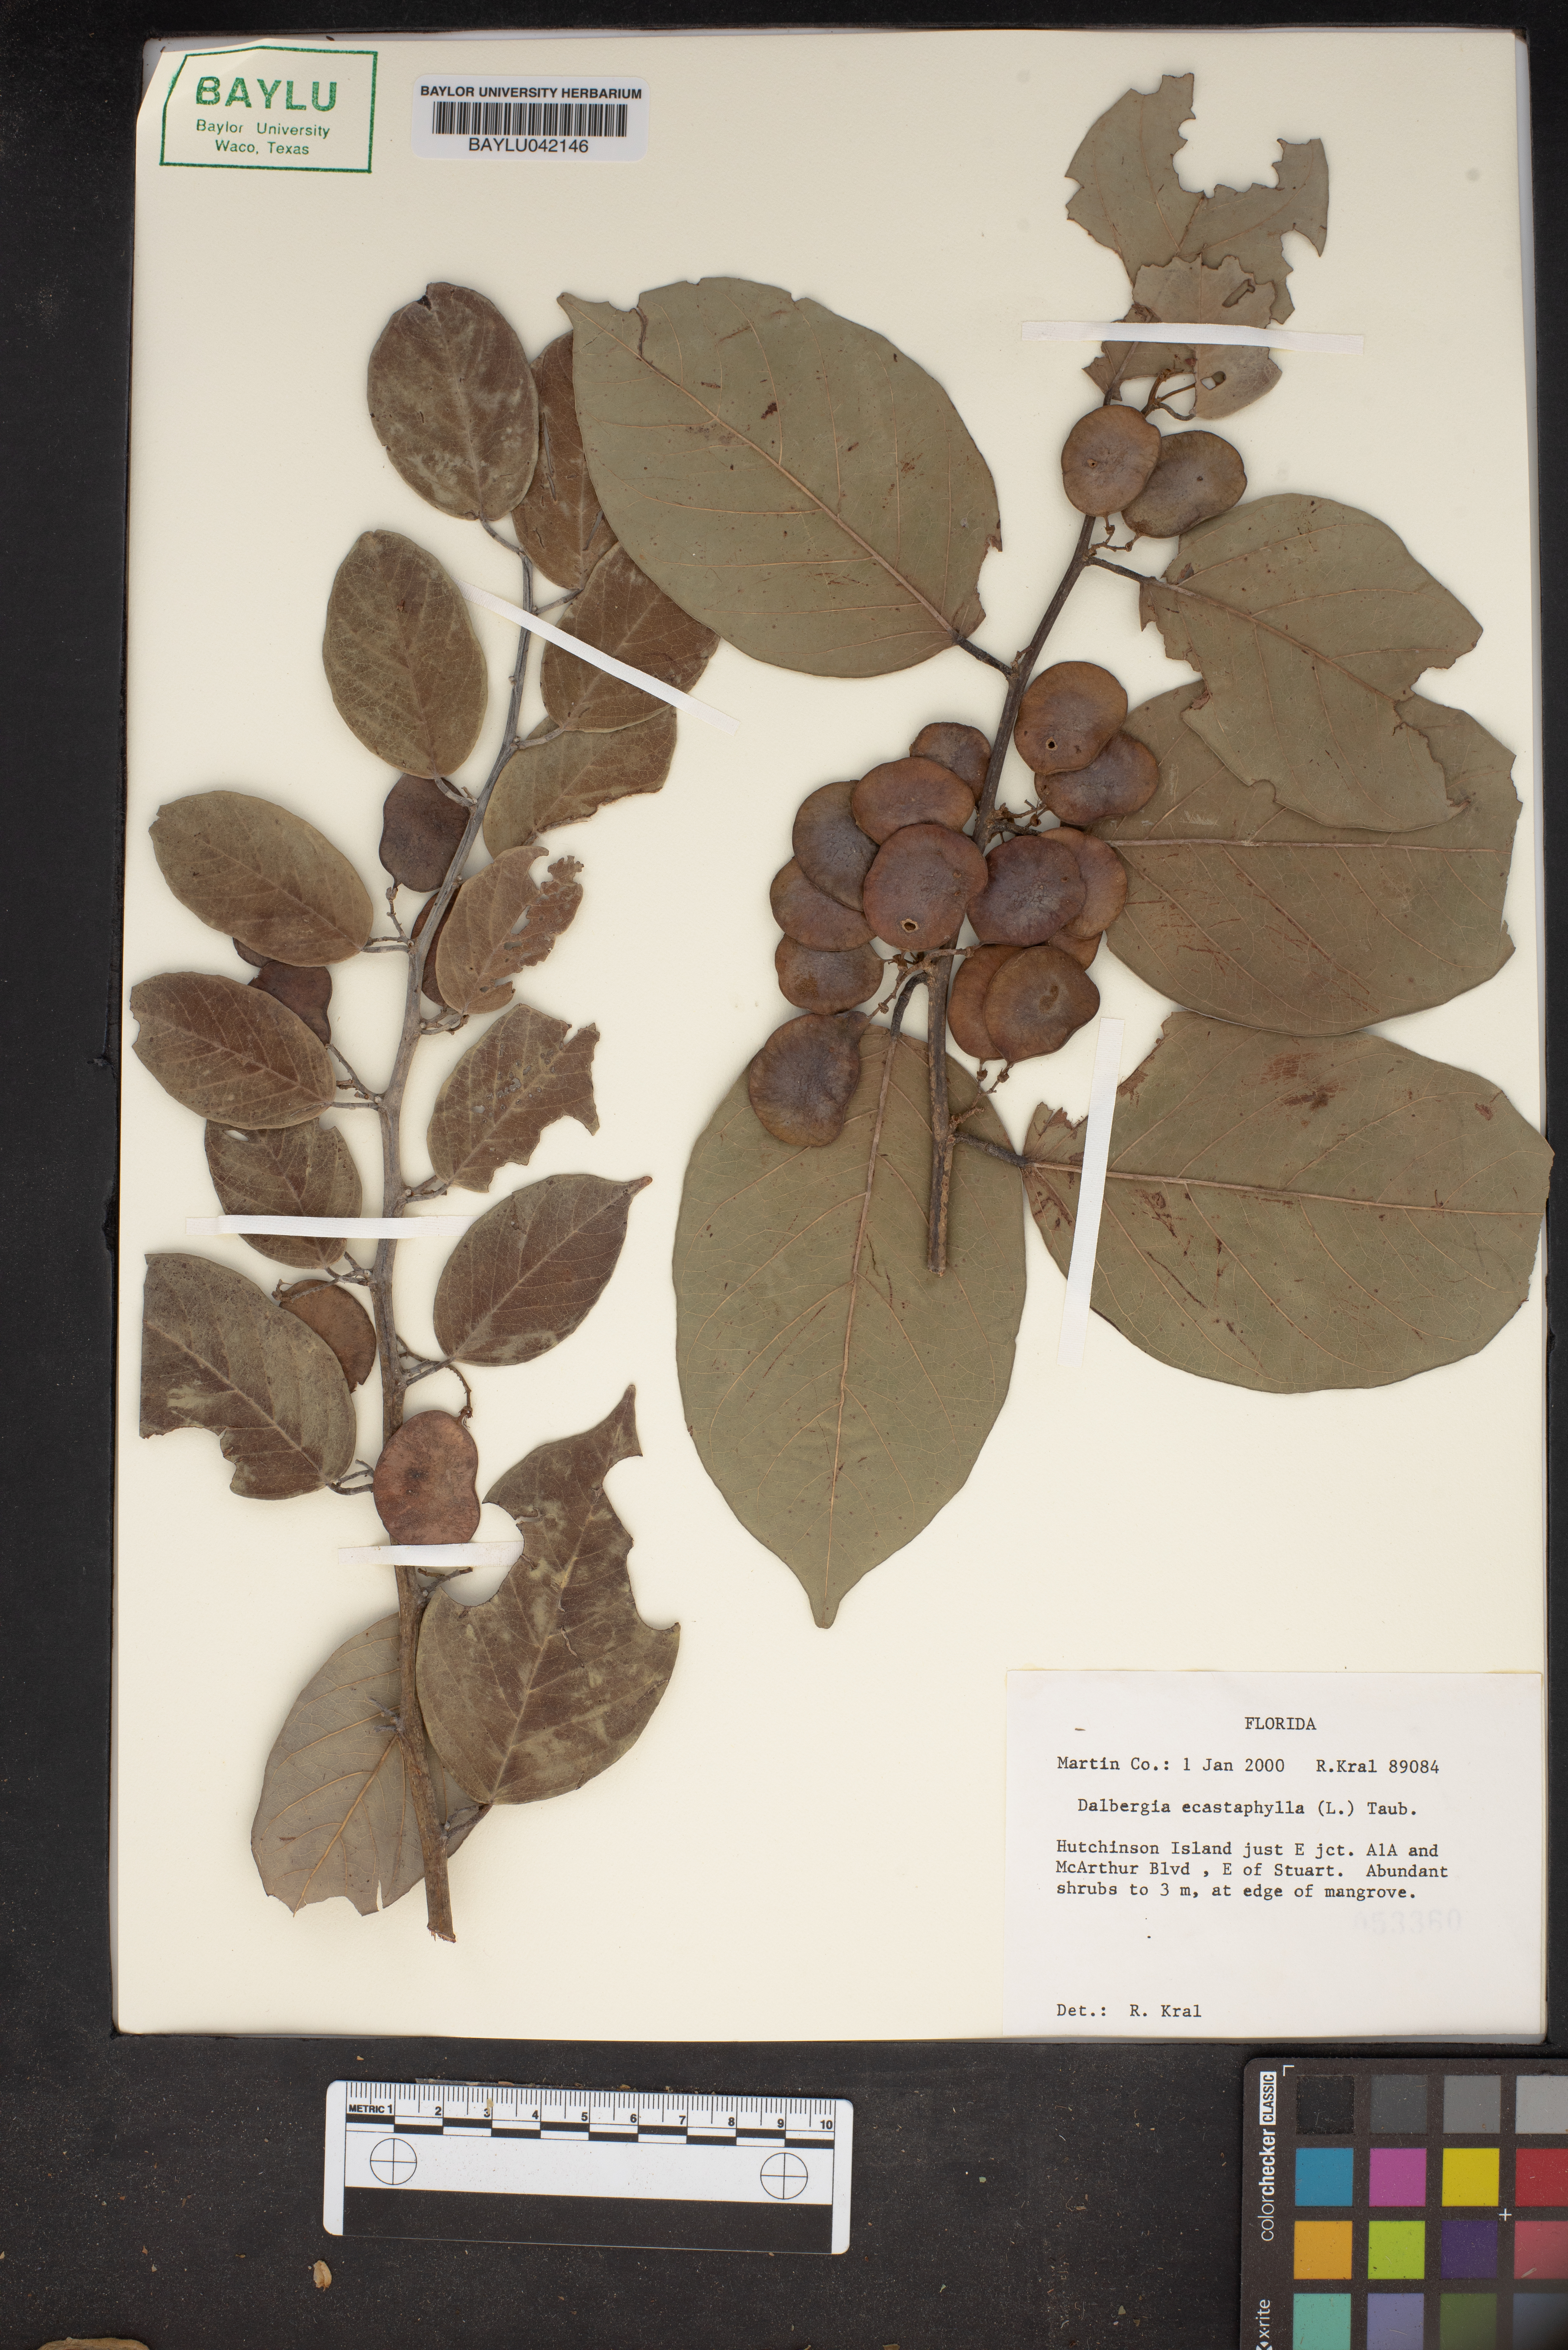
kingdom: Plantae
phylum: Tracheophyta
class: Magnoliopsida
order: Fabales
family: Fabaceae
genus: Dalbergia
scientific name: Dalbergia ecastaphyllum
